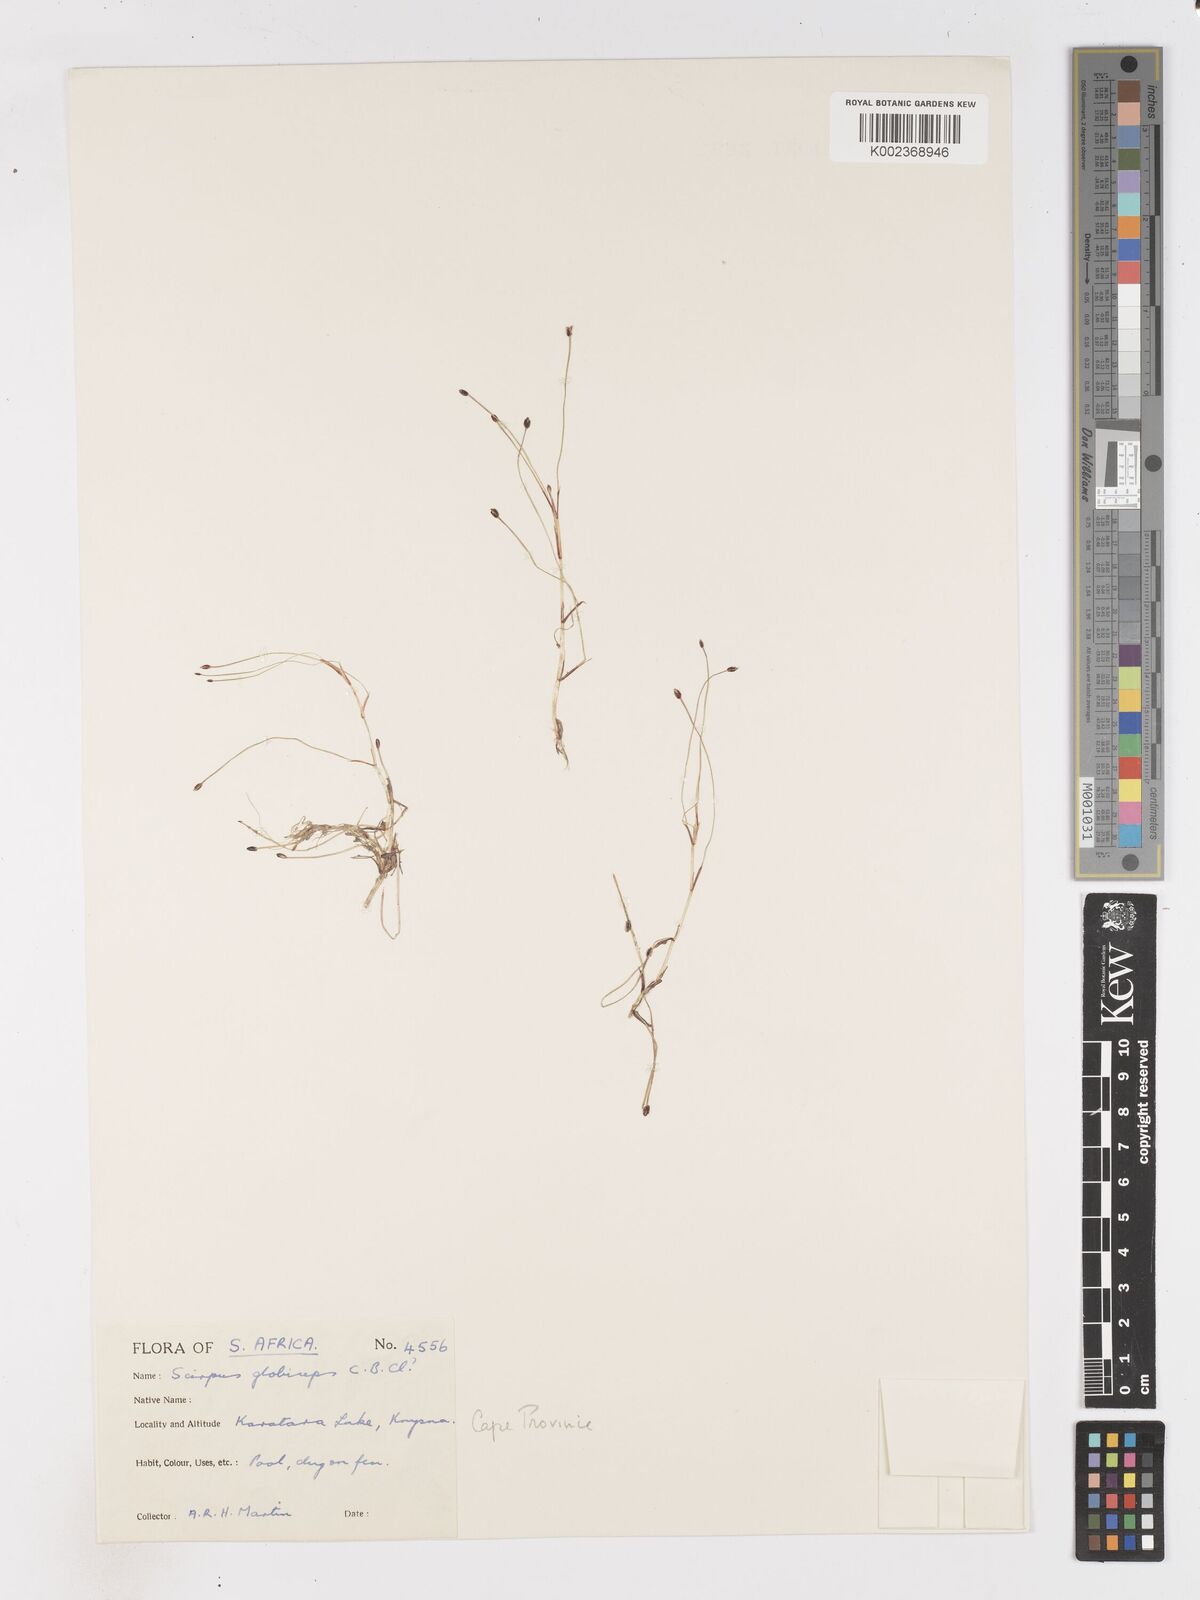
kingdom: Plantae
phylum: Tracheophyta
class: Liliopsida
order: Poales
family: Cyperaceae
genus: Isolepis
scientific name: Isolepis rubicunda
